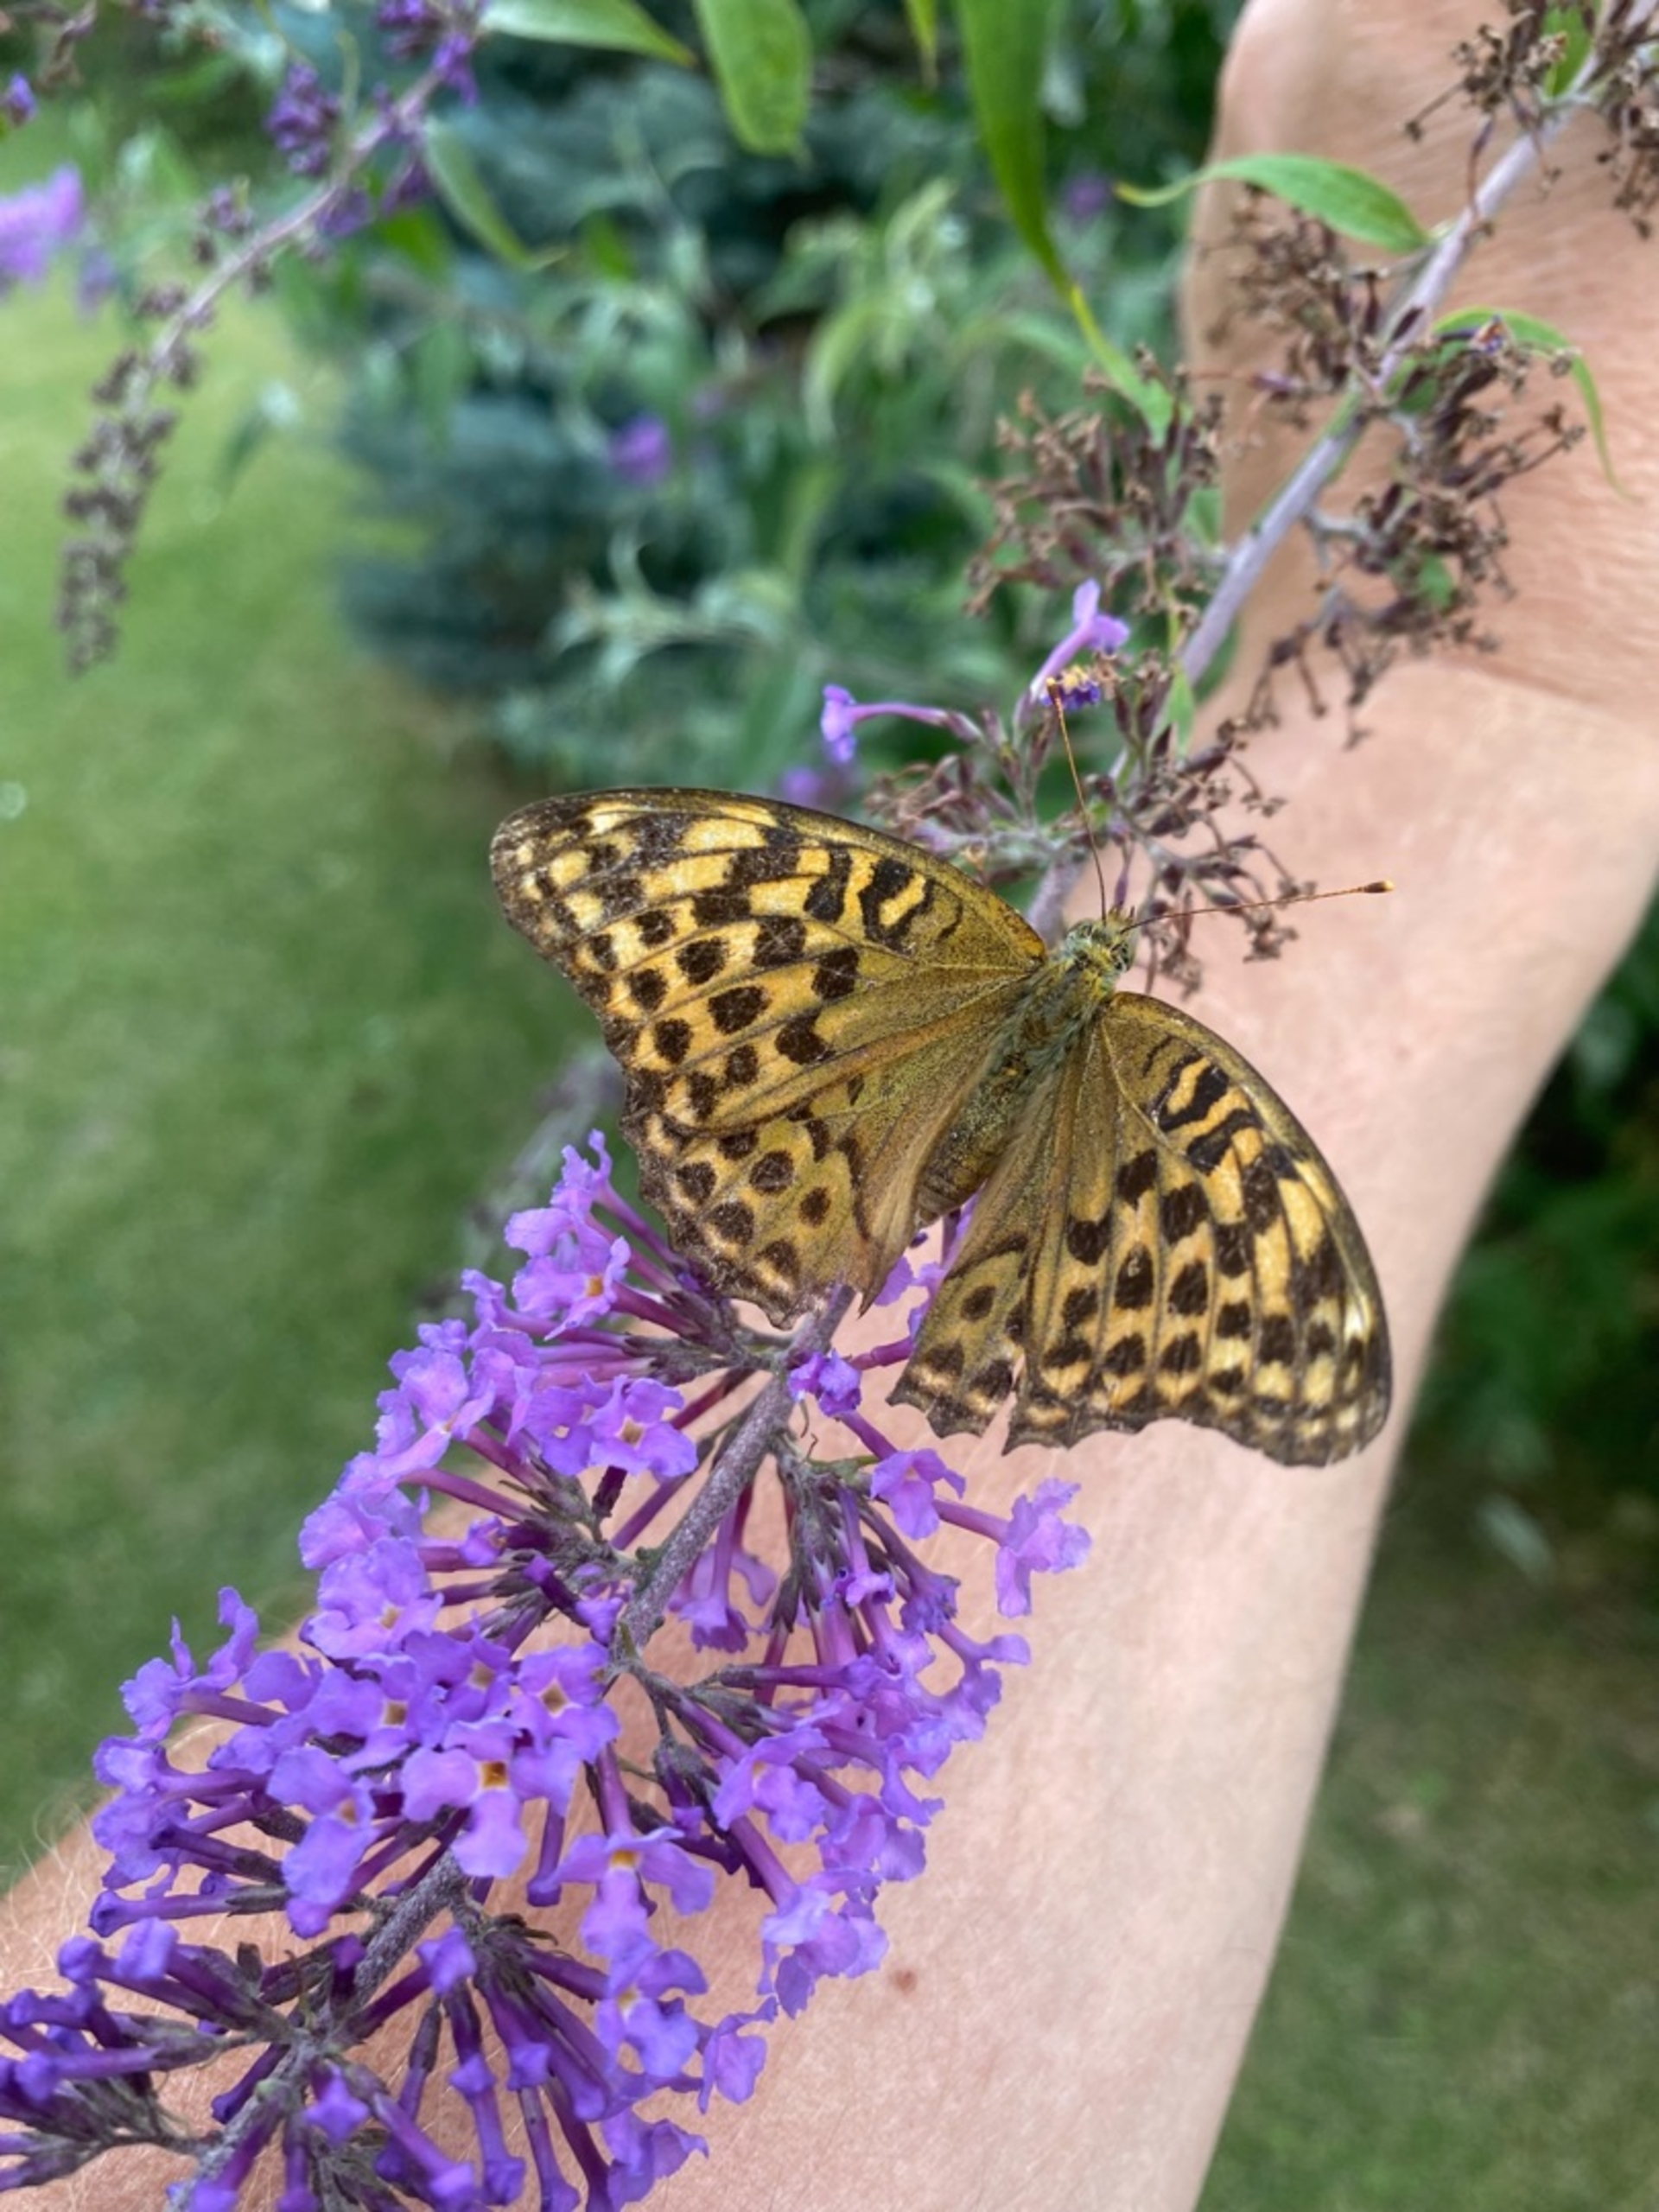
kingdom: Animalia
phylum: Arthropoda
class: Insecta
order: Lepidoptera
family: Nymphalidae
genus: Argynnis
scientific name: Argynnis paphia
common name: Kejserkåbe
